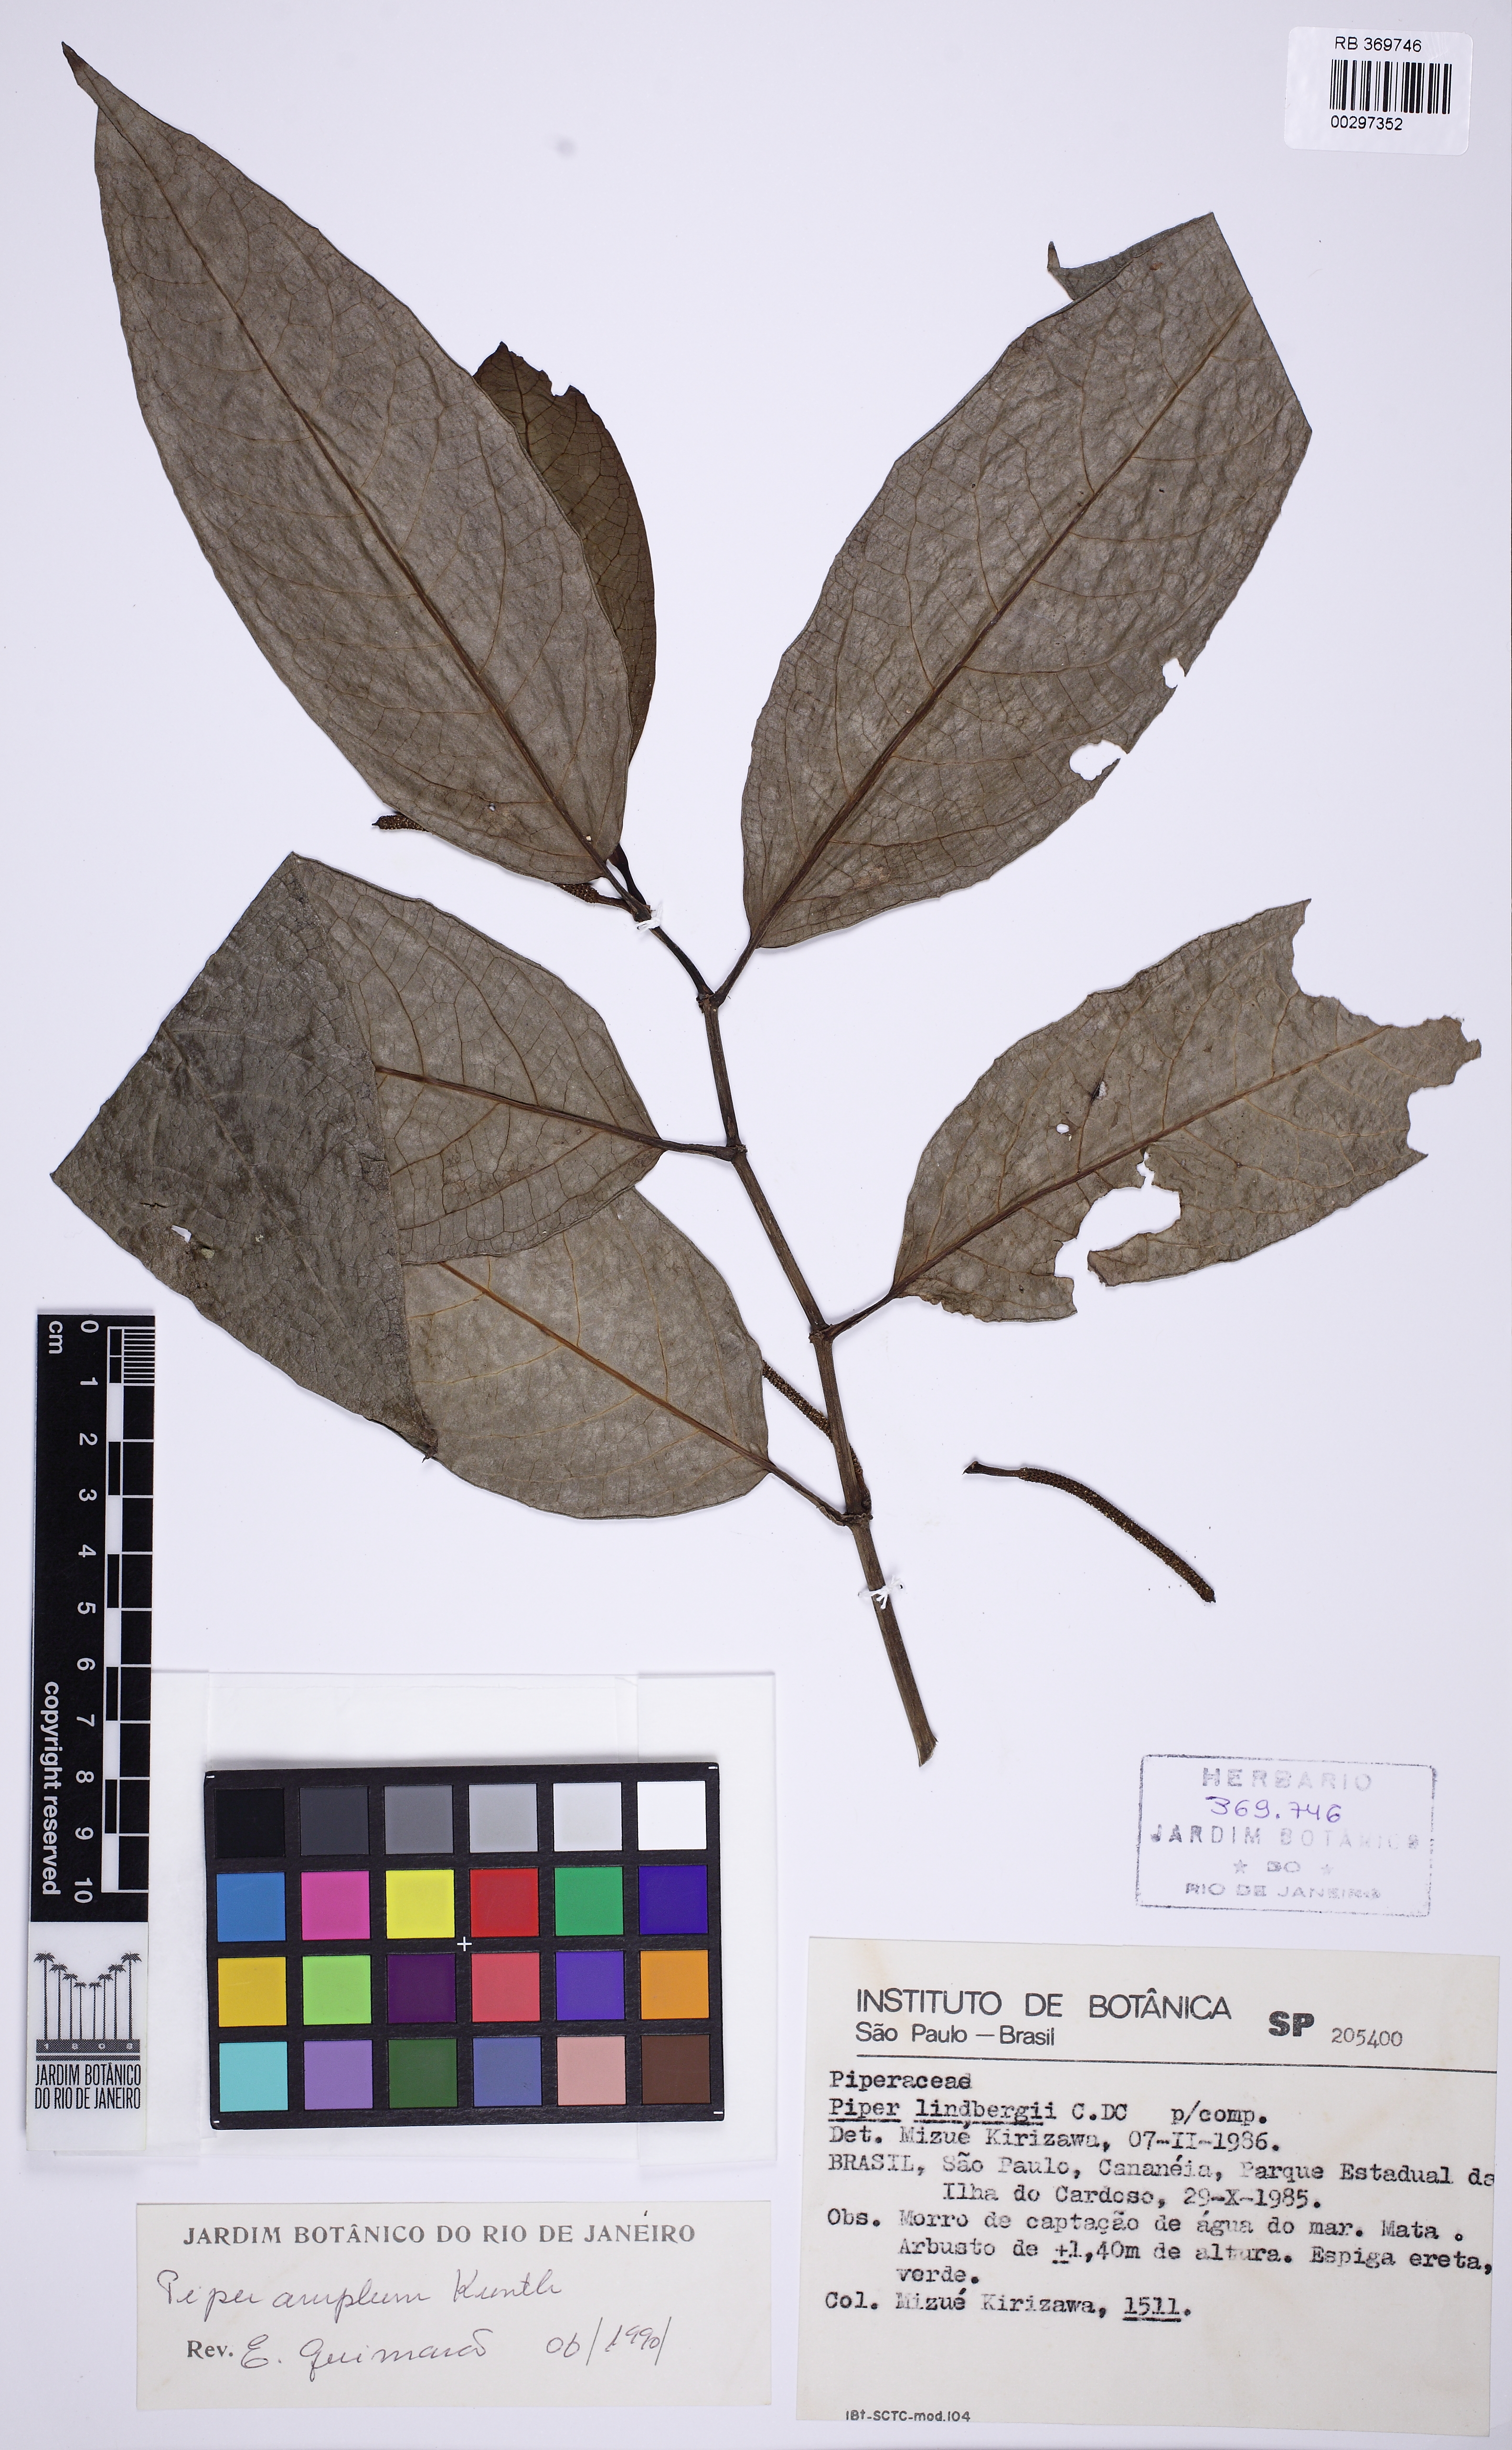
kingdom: Plantae
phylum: Tracheophyta
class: Magnoliopsida
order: Piperales
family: Piperaceae
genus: Piper
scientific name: Piper fluminense
